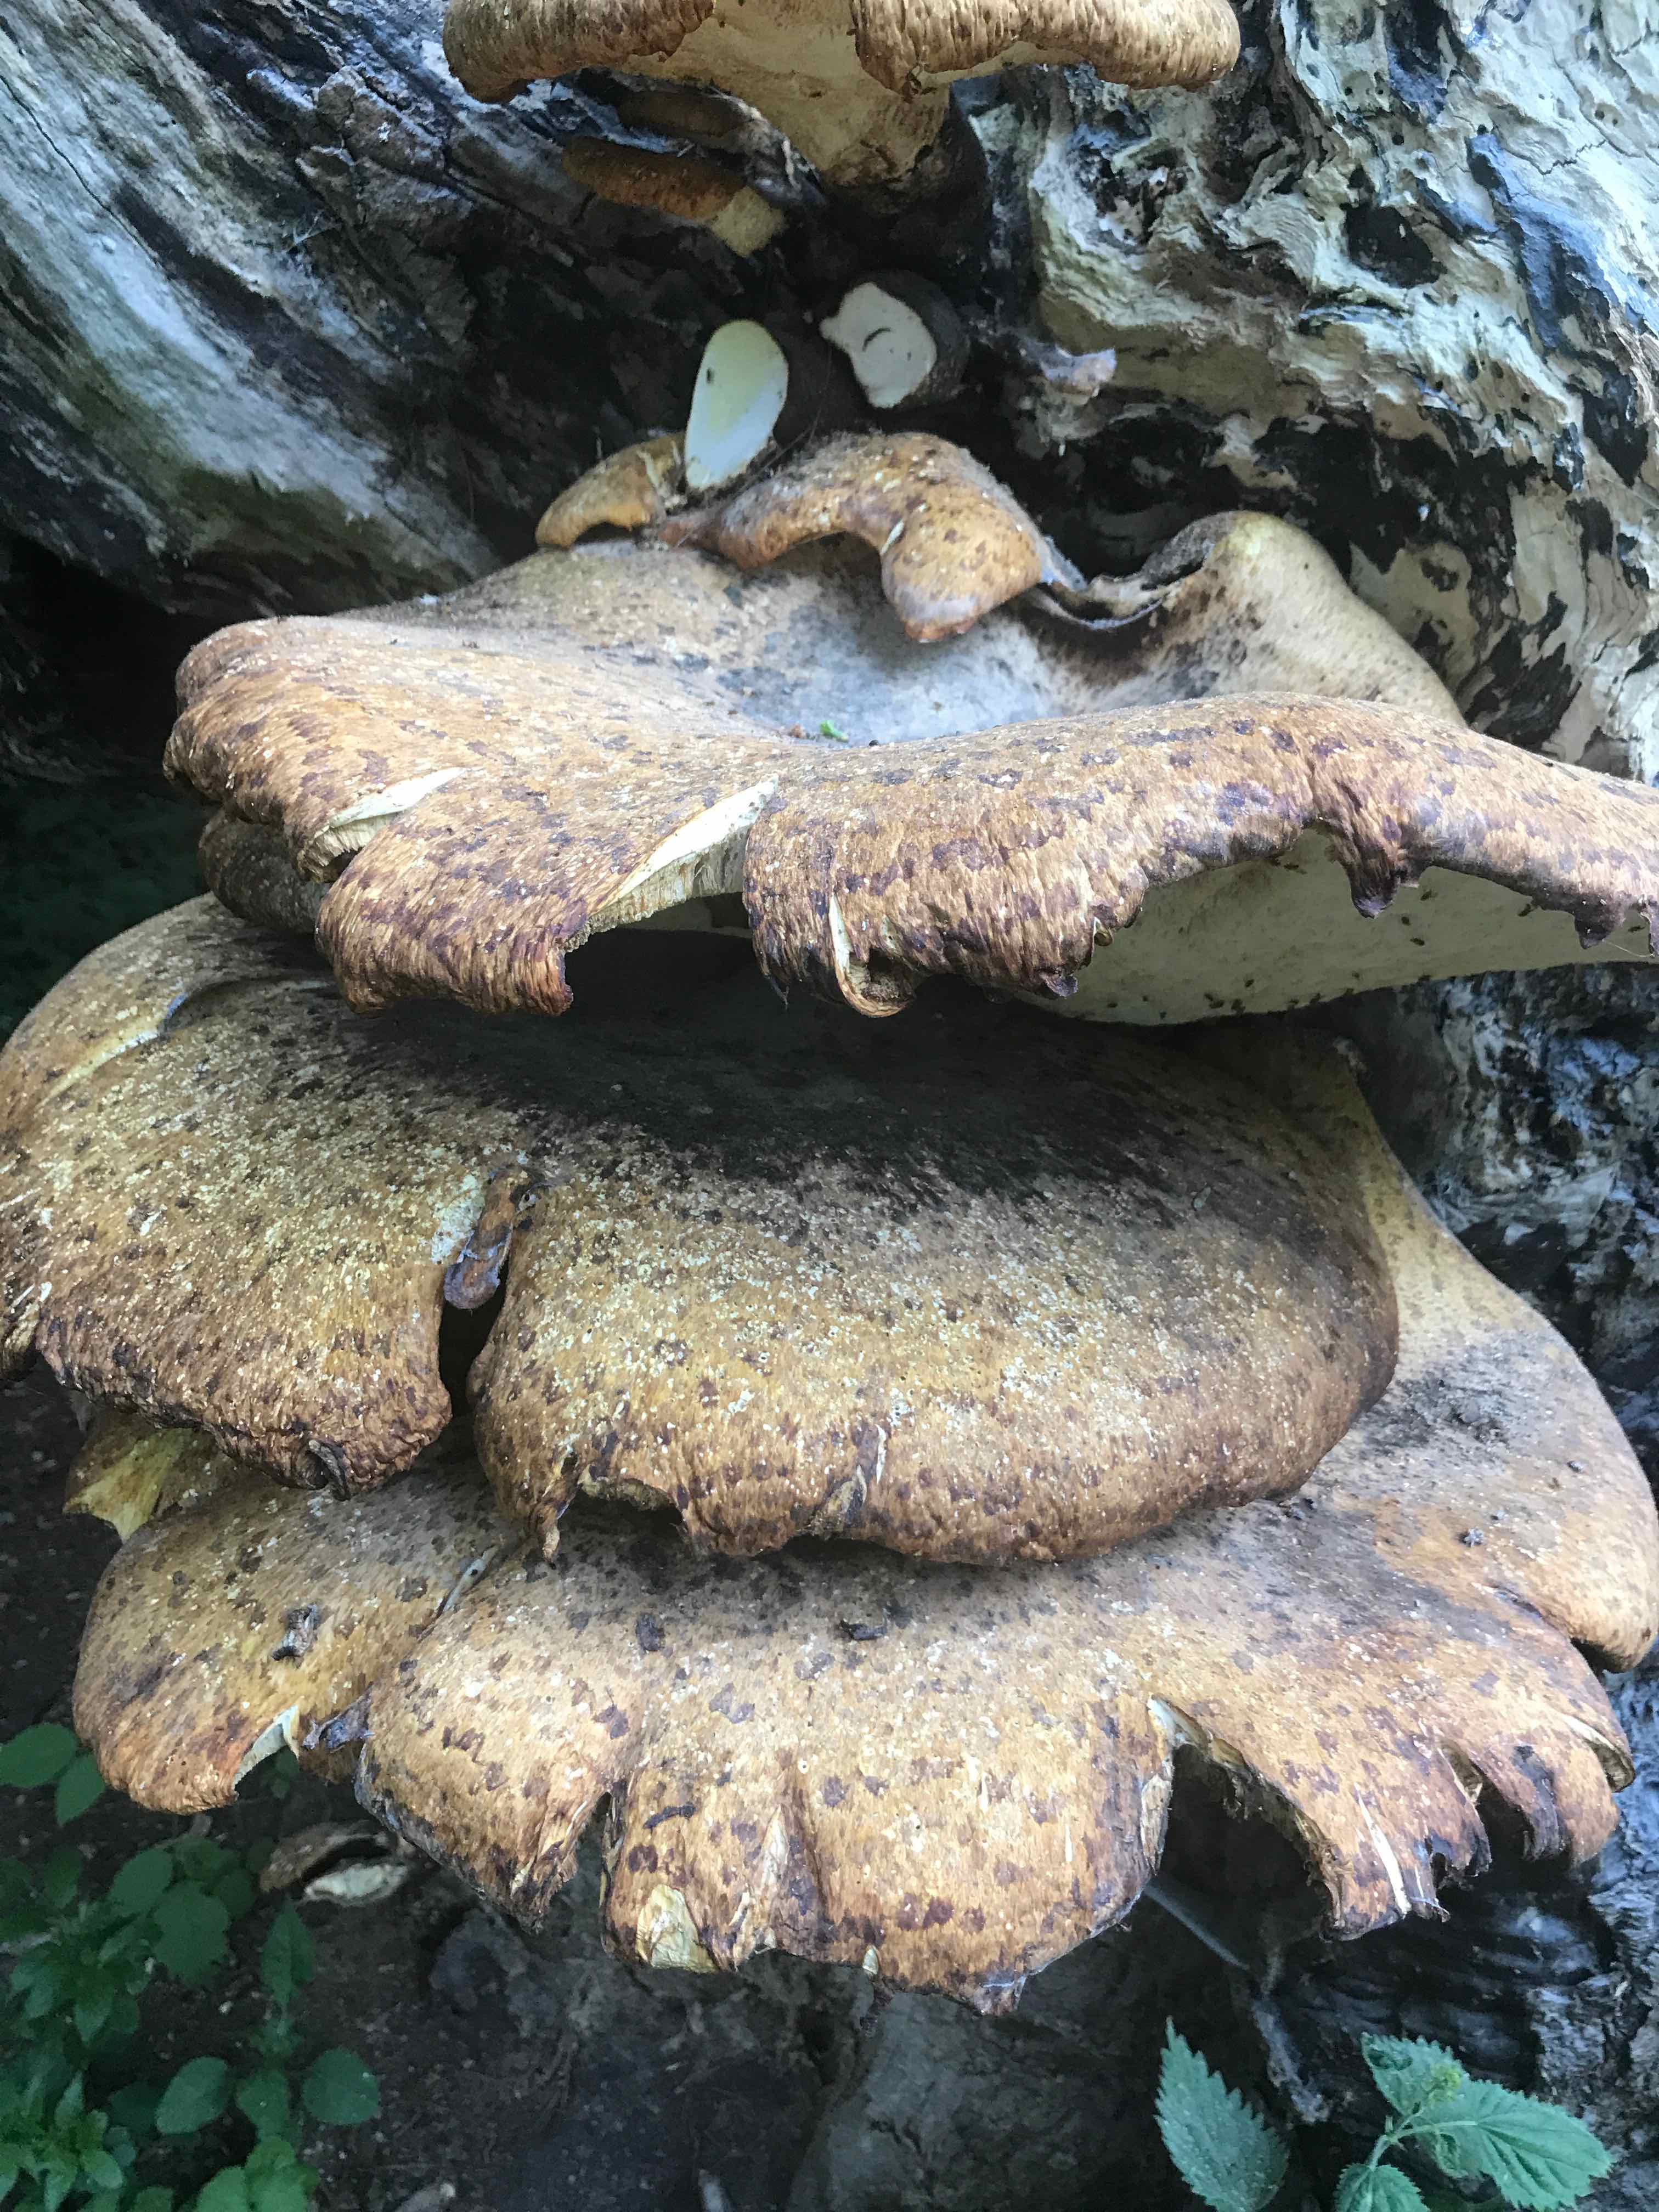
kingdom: Fungi
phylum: Basidiomycota
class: Agaricomycetes
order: Polyporales
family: Polyporaceae
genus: Cerioporus
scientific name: Cerioporus squamosus
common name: skællet stilkporesvamp
